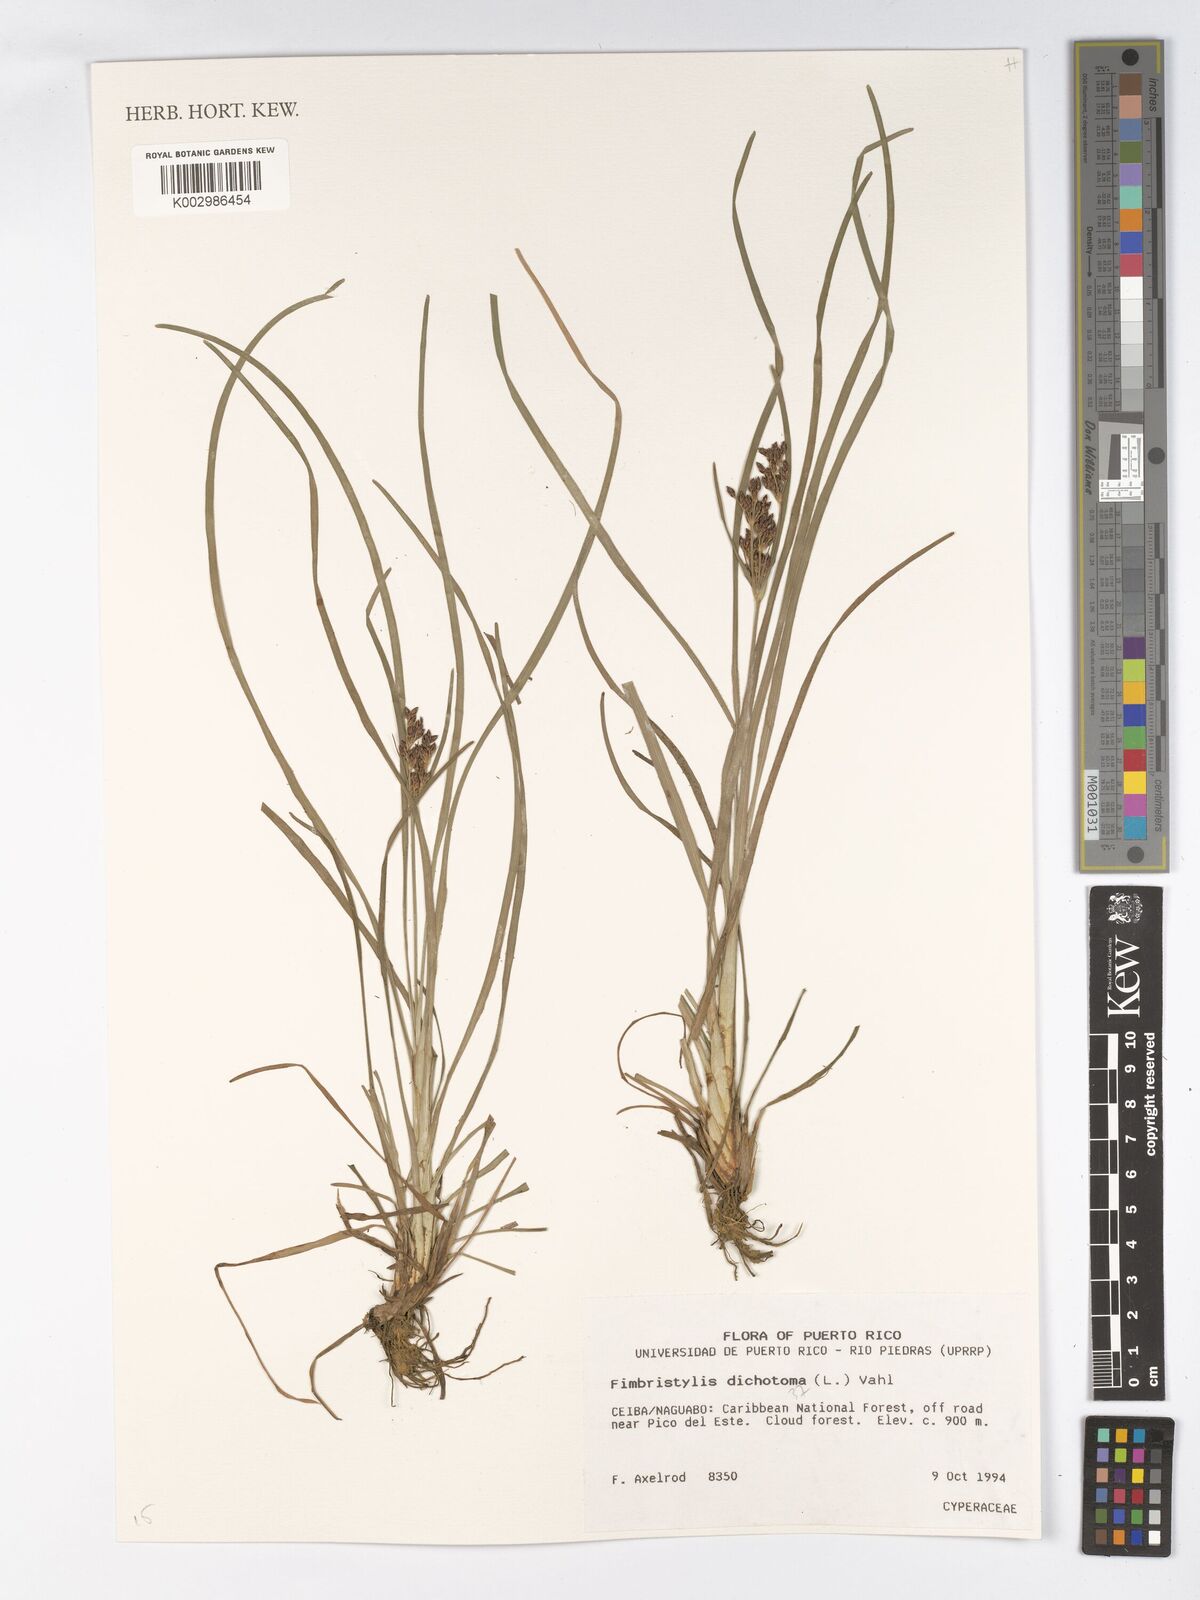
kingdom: Plantae
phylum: Tracheophyta
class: Liliopsida
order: Poales
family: Cyperaceae
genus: Fimbristylis
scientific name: Fimbristylis dichotoma
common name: Forked fimbry
